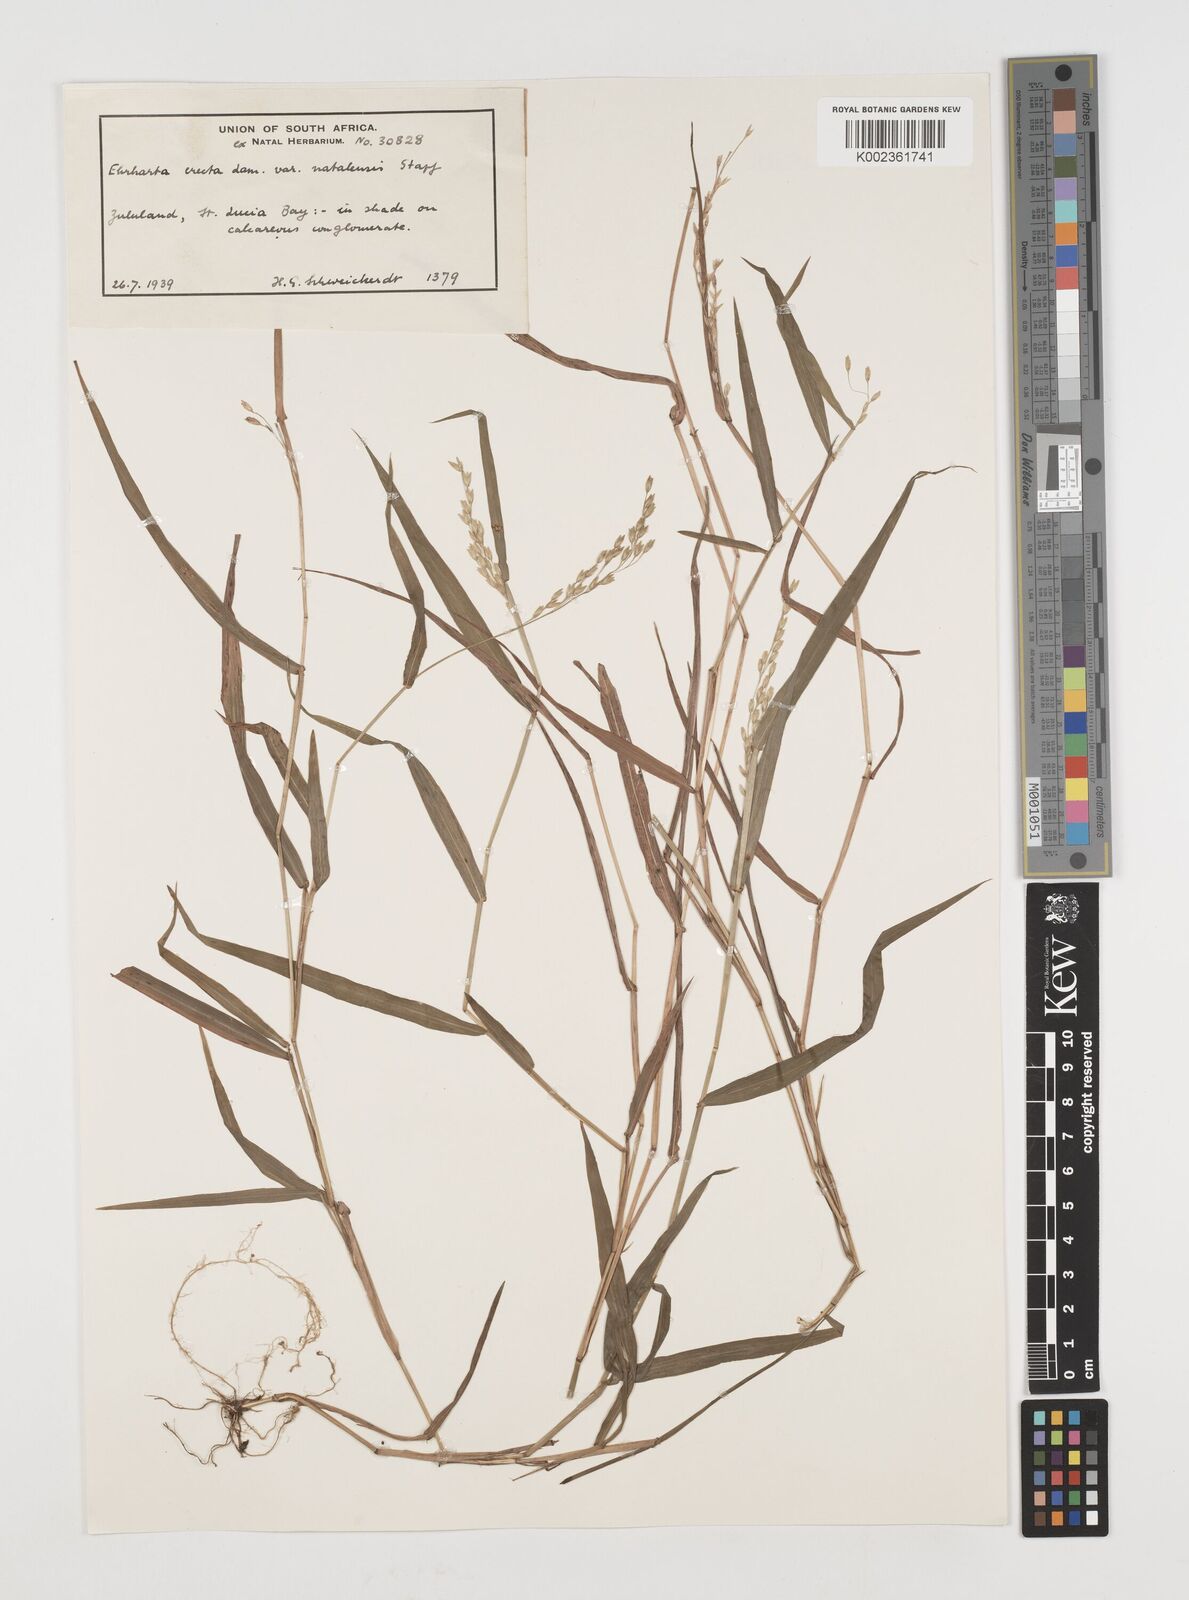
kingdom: Plantae
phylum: Tracheophyta
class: Liliopsida
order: Poales
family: Poaceae
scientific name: Poaceae
